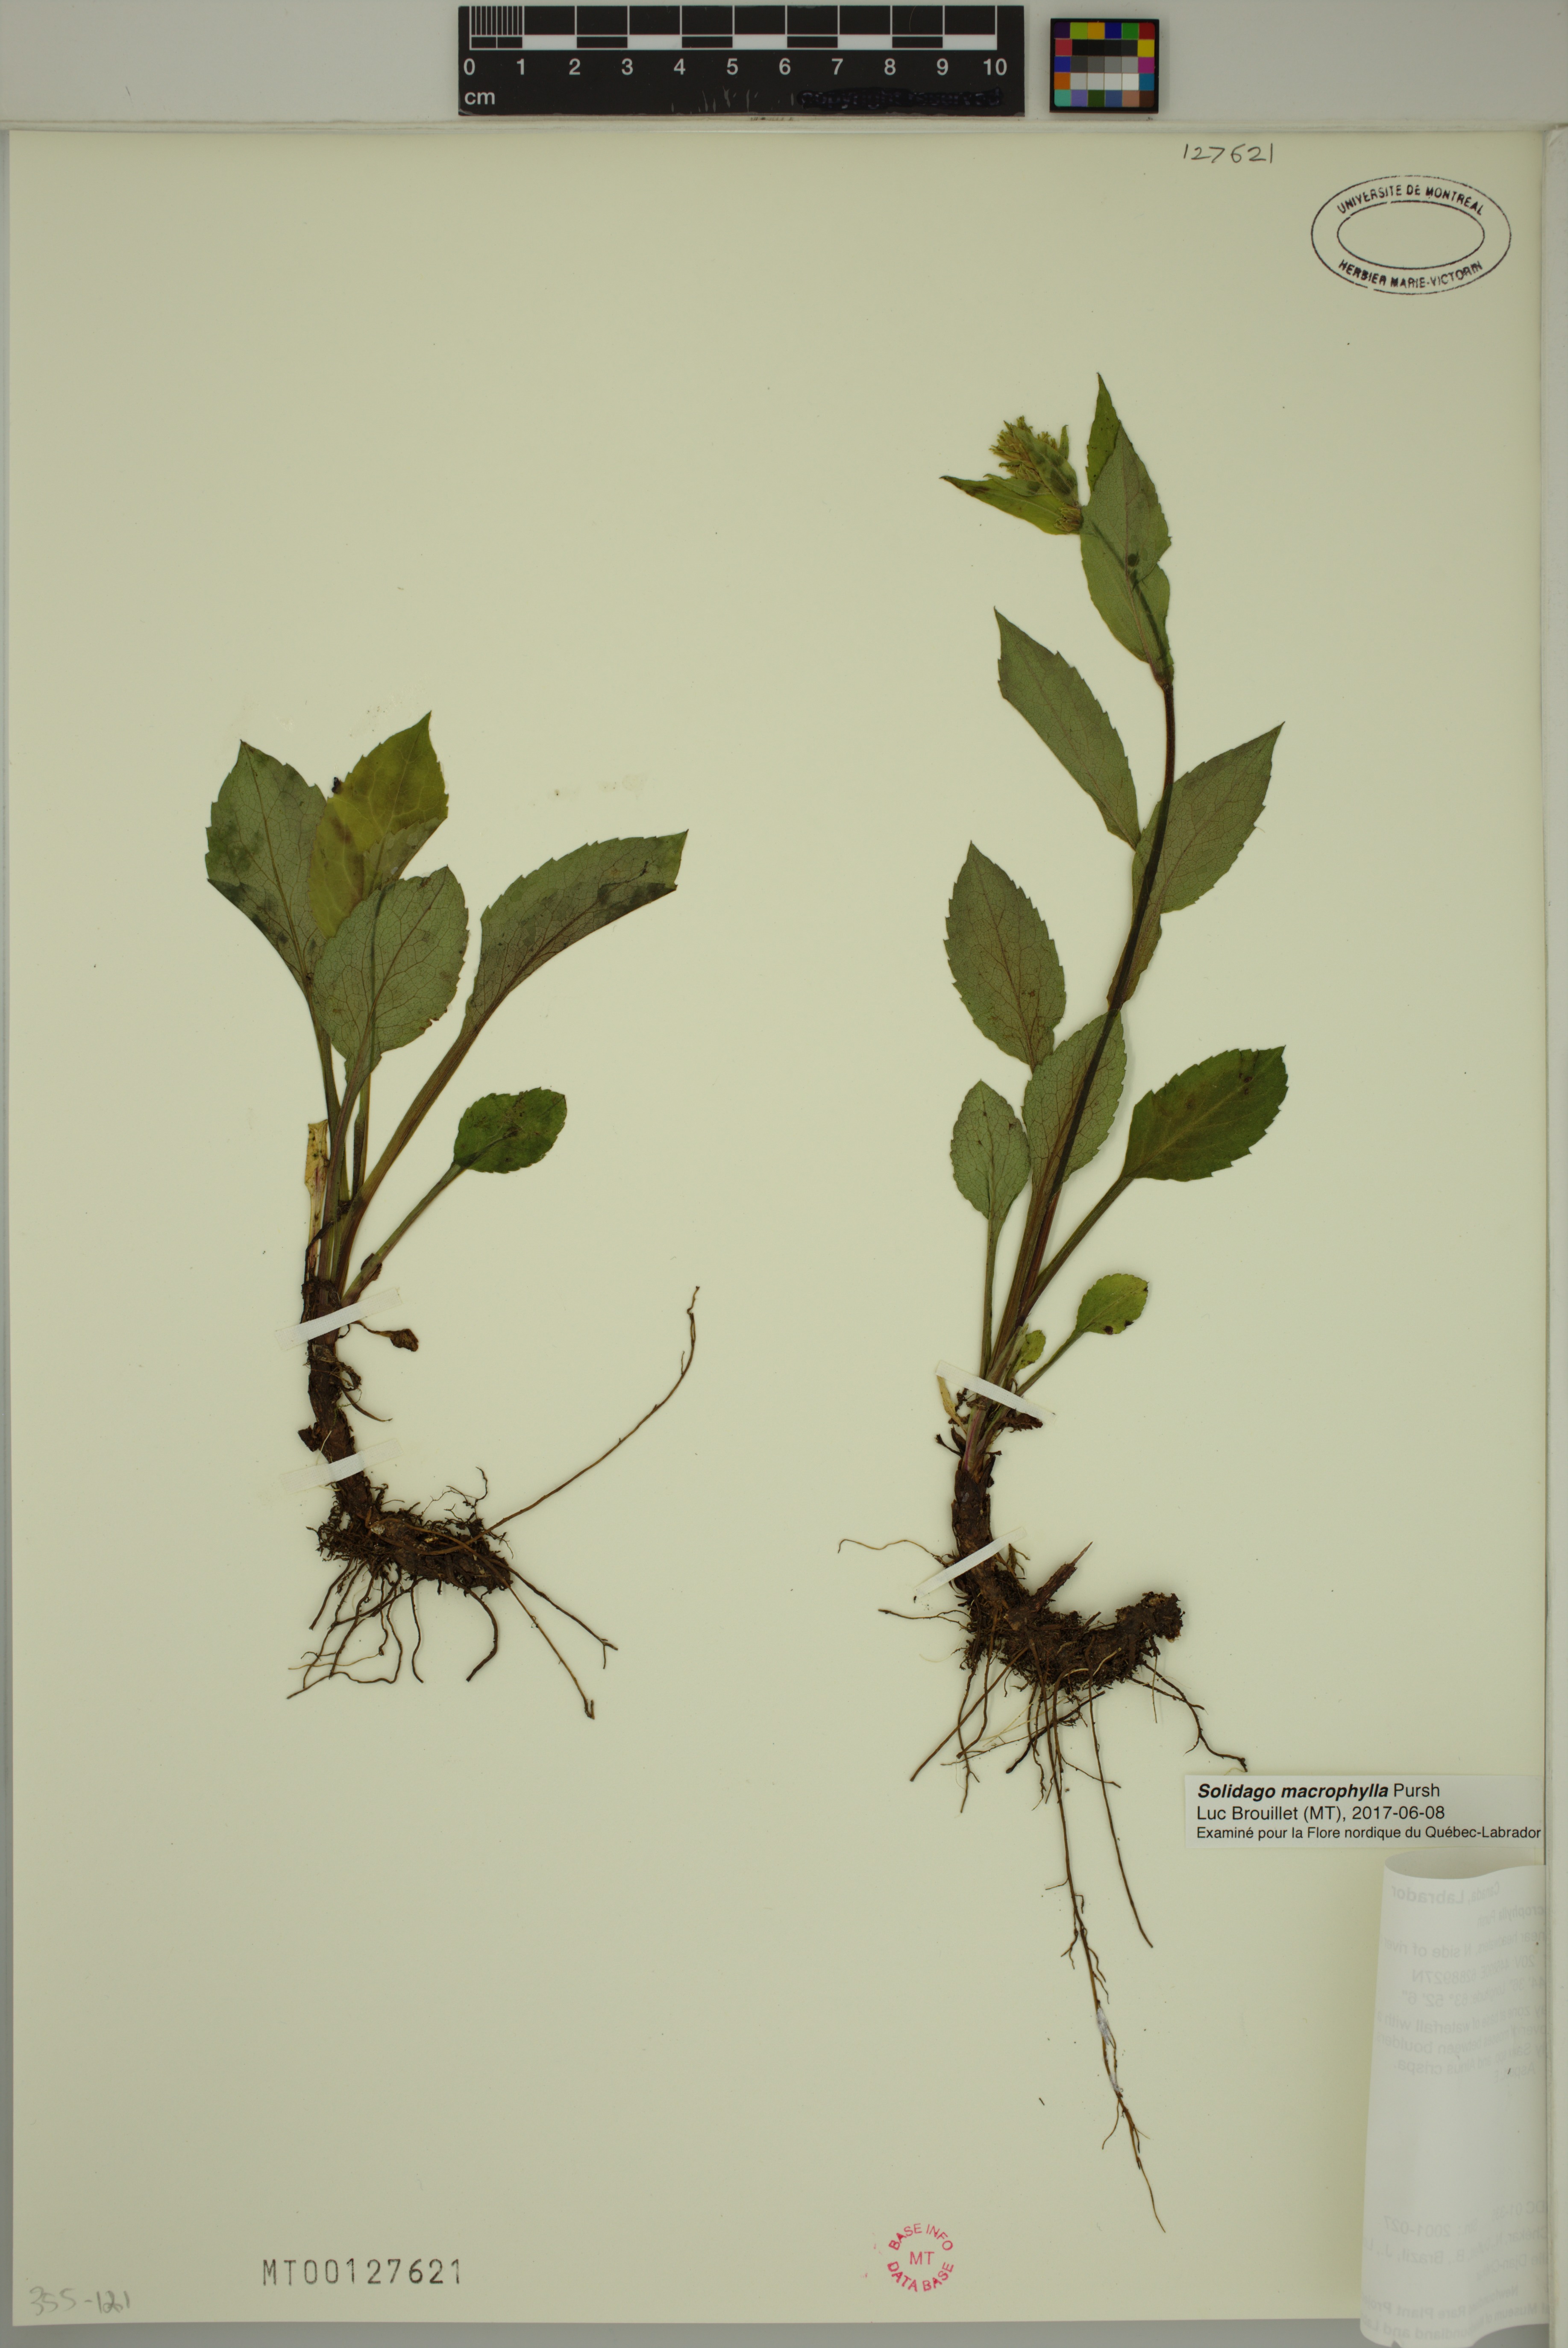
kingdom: Plantae
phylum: Tracheophyta
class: Magnoliopsida
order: Asterales
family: Asteraceae
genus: Solidago
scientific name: Solidago macrophylla
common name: Large-leaved goldenrod
